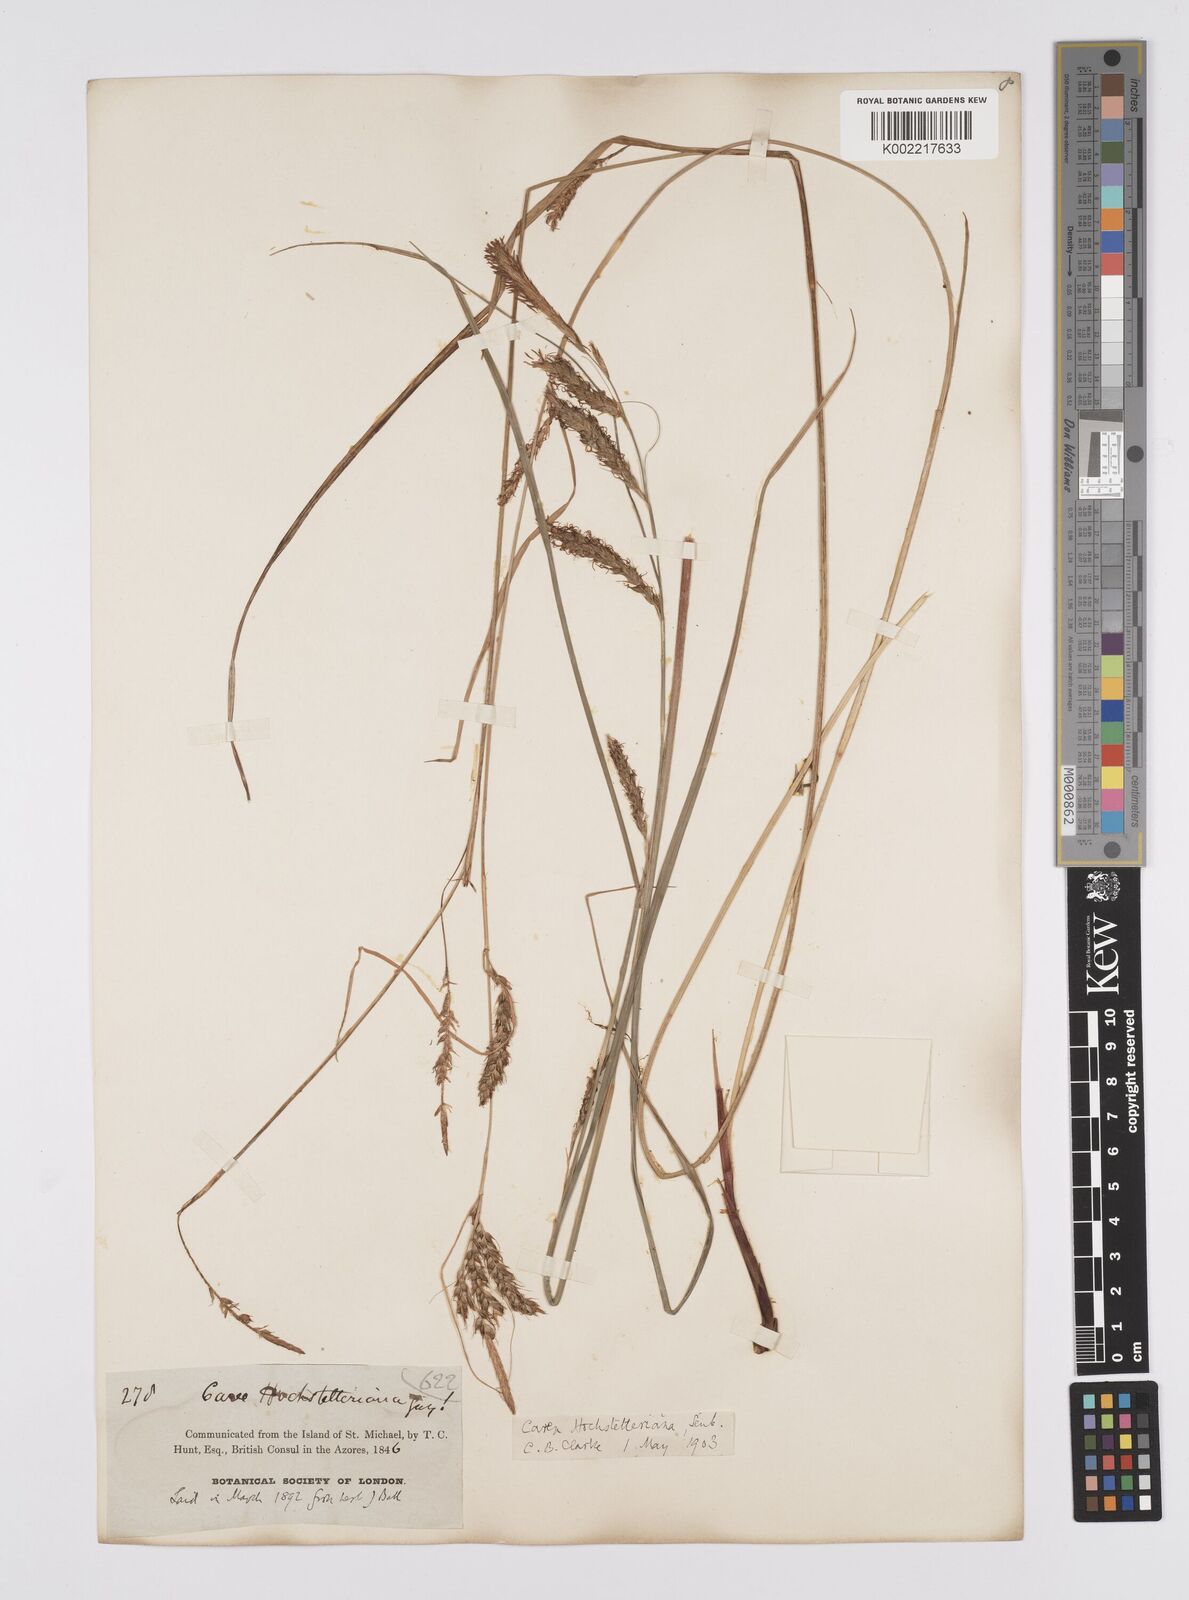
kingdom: Plantae
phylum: Tracheophyta
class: Liliopsida
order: Poales
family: Cyperaceae
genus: Carex
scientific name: Carex hochstetteriana
